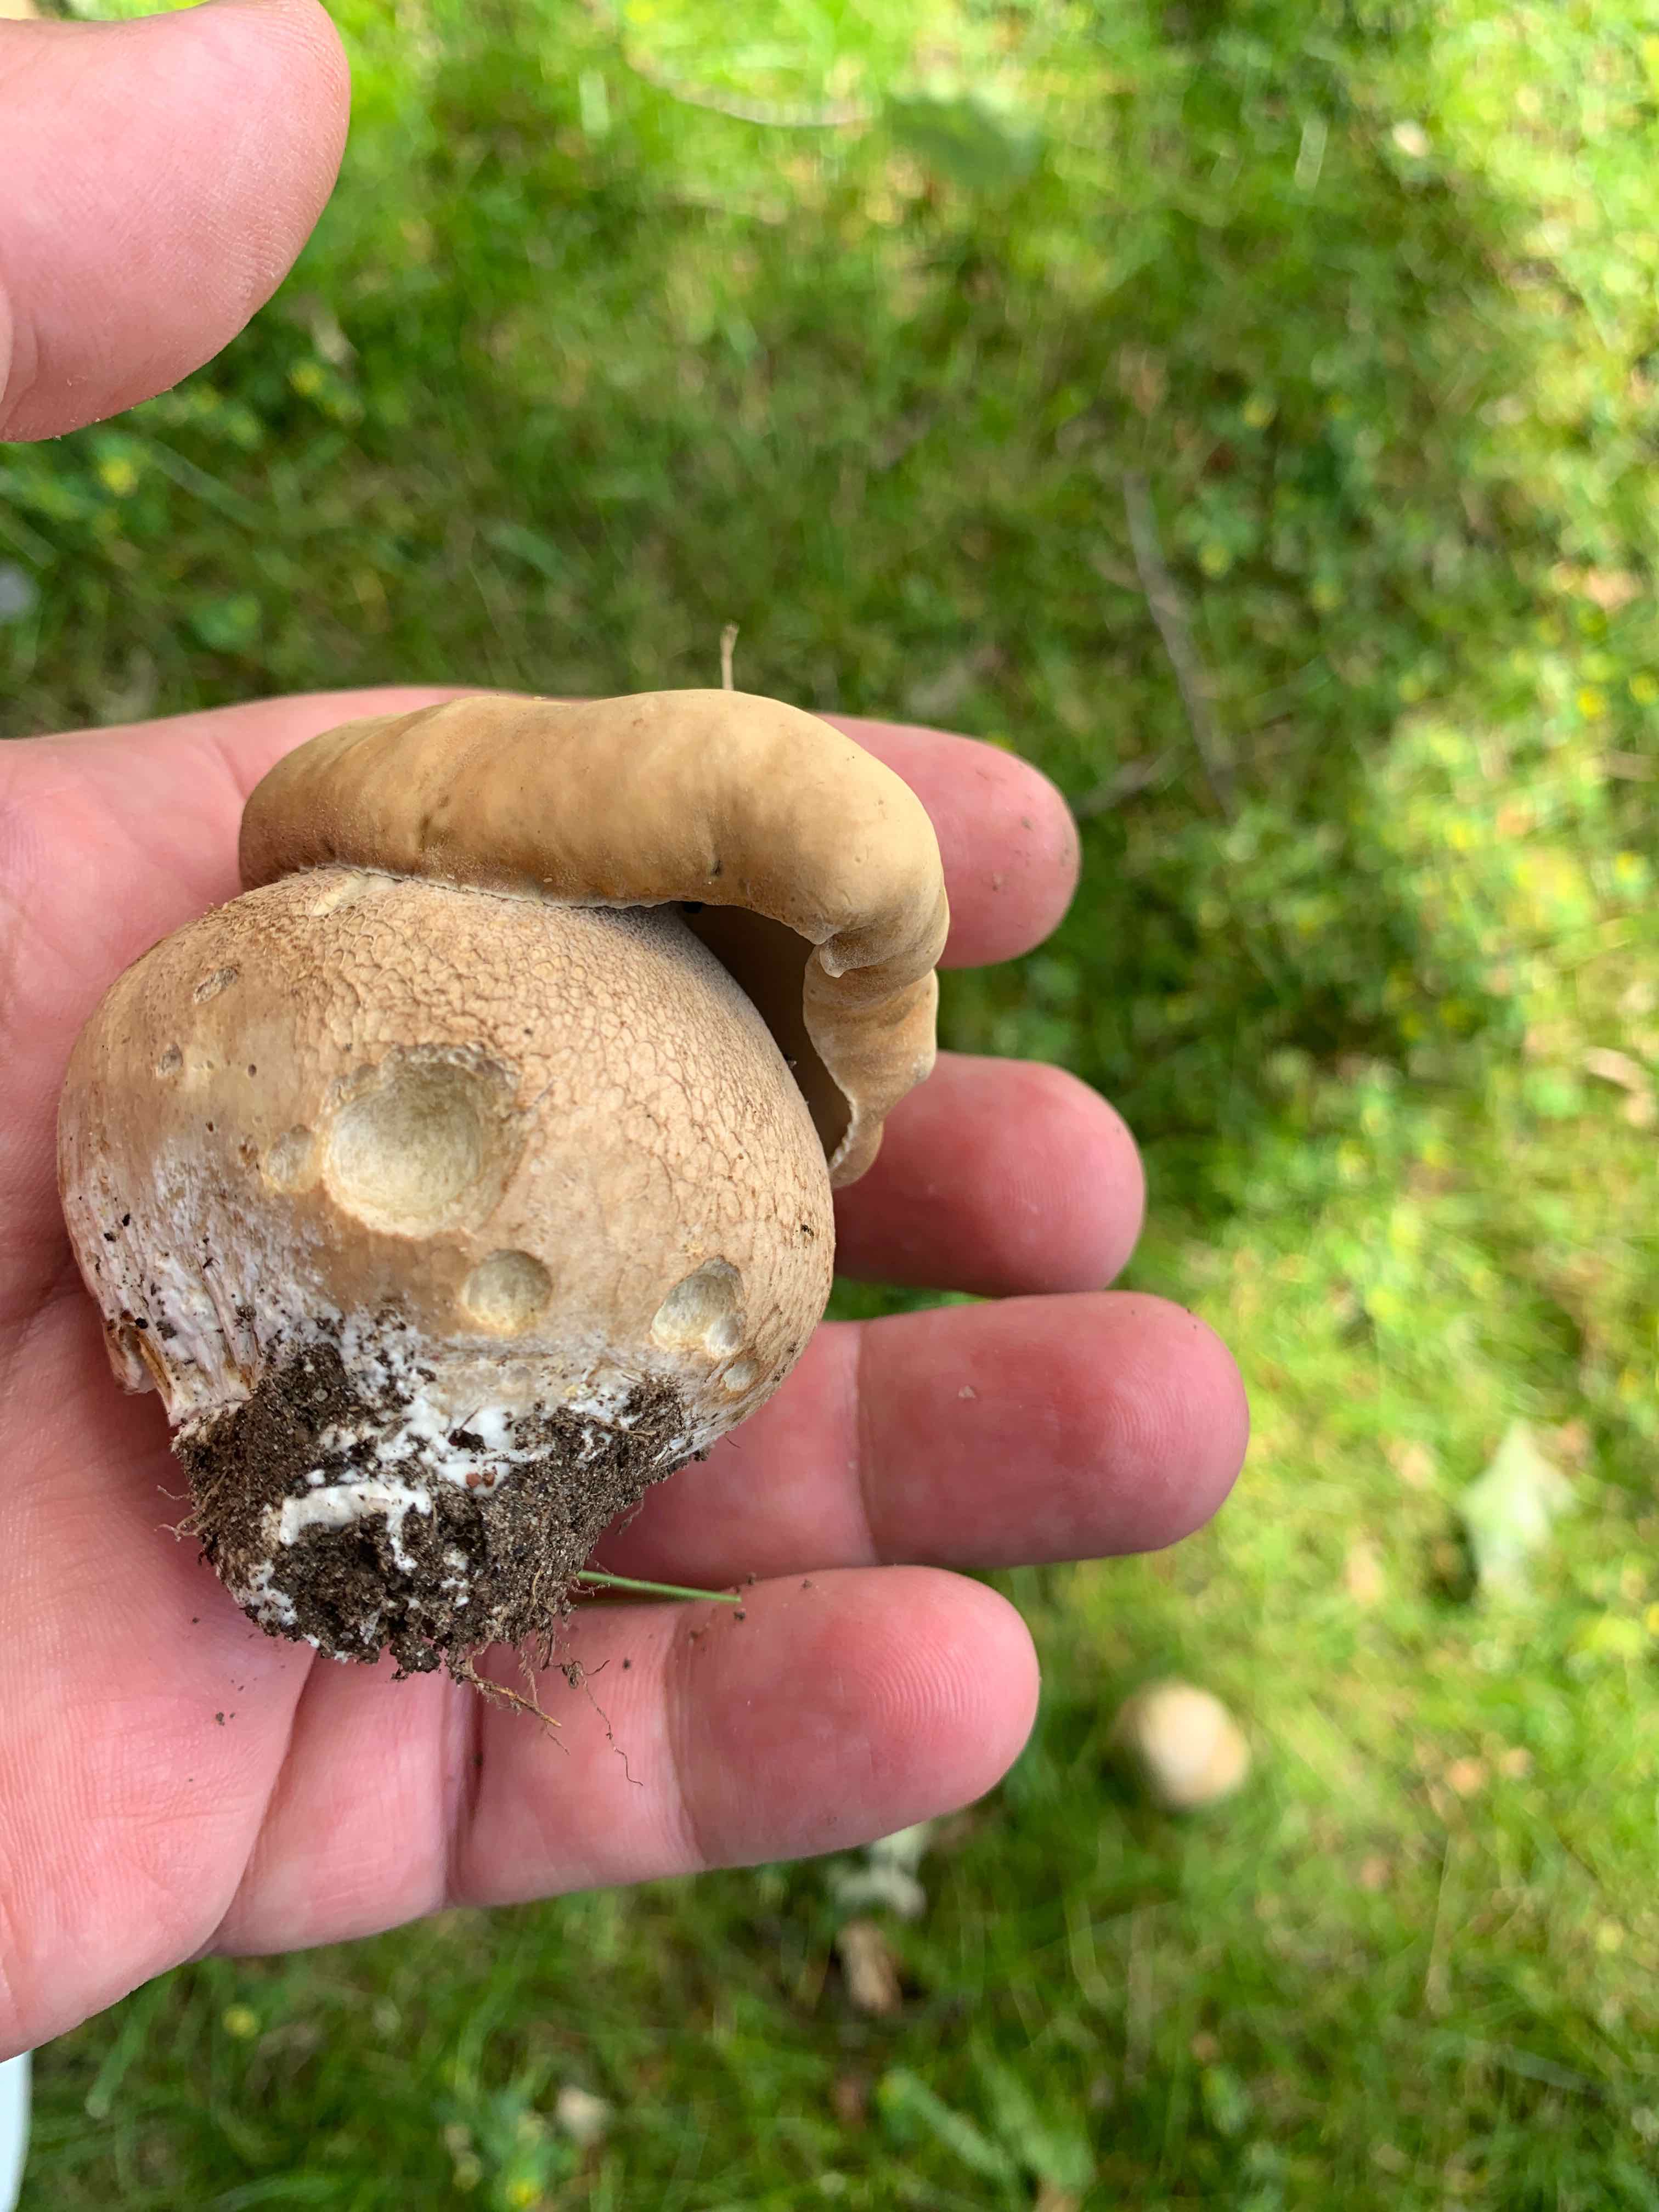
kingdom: Fungi
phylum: Basidiomycota
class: Agaricomycetes
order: Boletales
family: Boletaceae
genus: Boletus
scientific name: Boletus reticulatus
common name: sommer-rørhat
